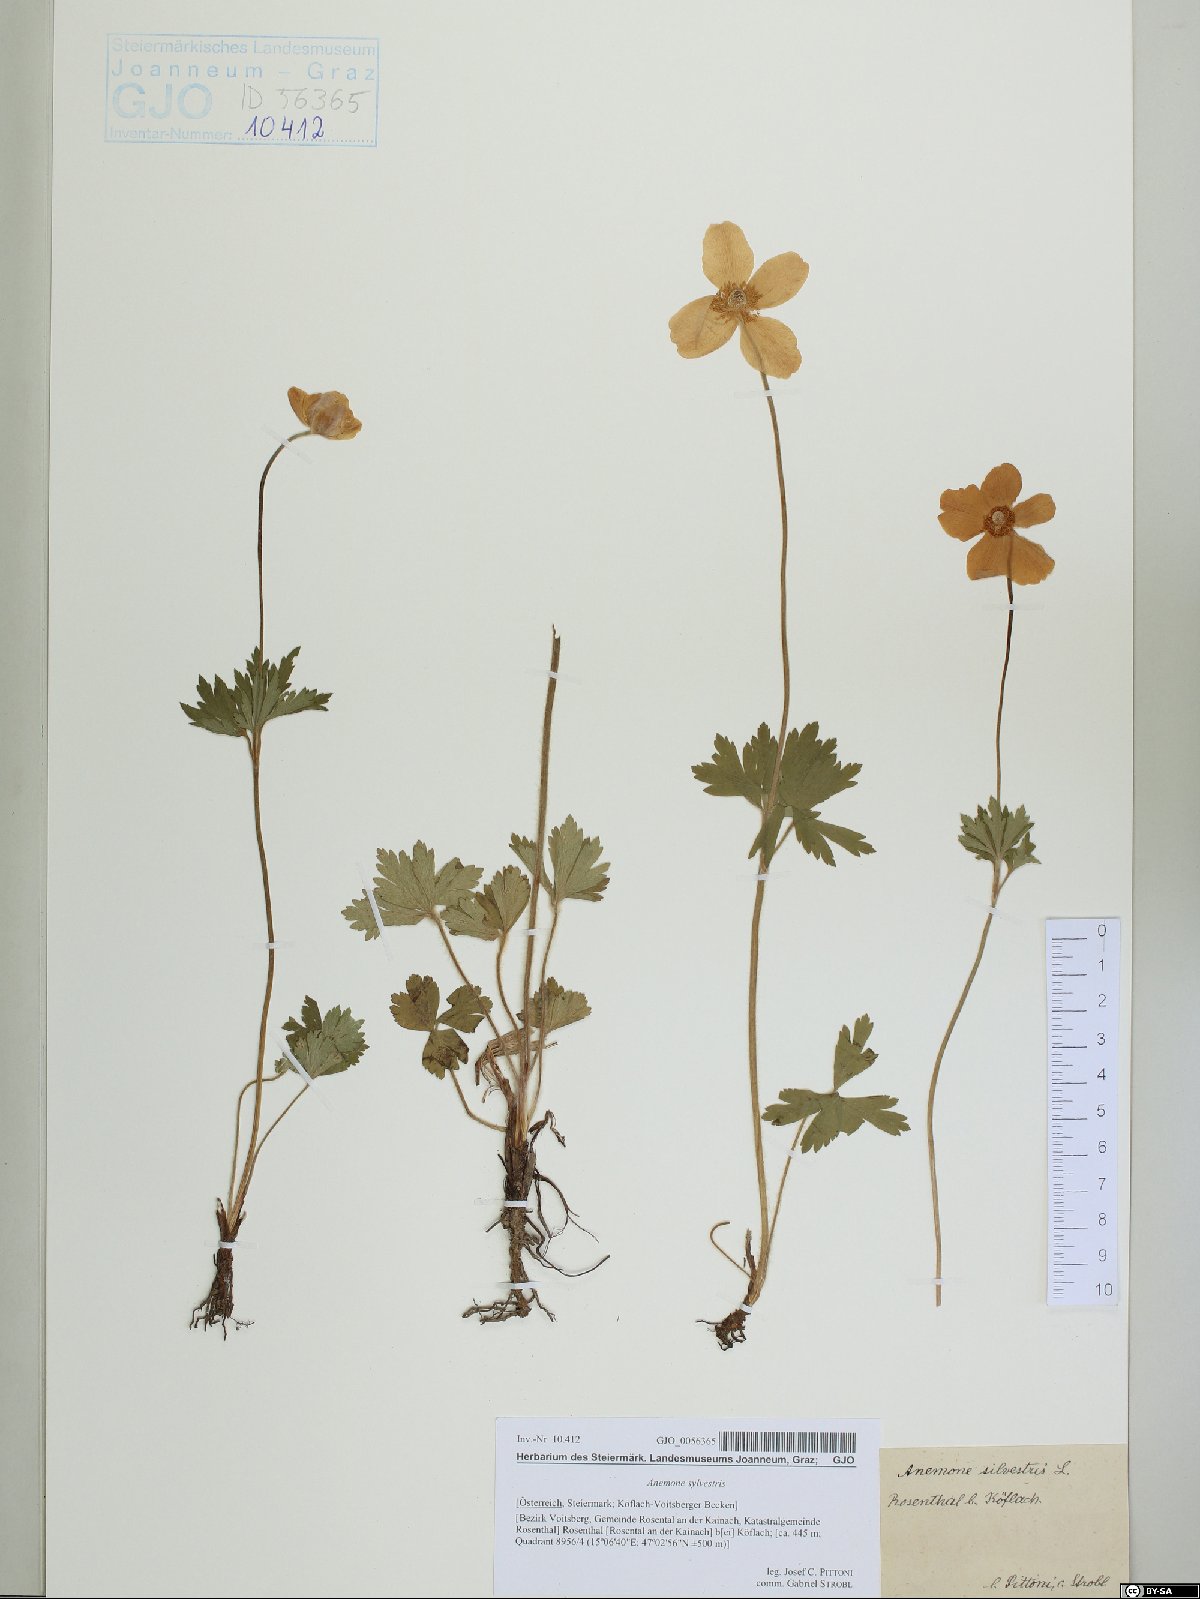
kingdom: Plantae
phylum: Tracheophyta
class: Magnoliopsida
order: Ranunculales
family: Ranunculaceae
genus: Anemone
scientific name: Anemone sylvestris
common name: Snowdrop anemone
